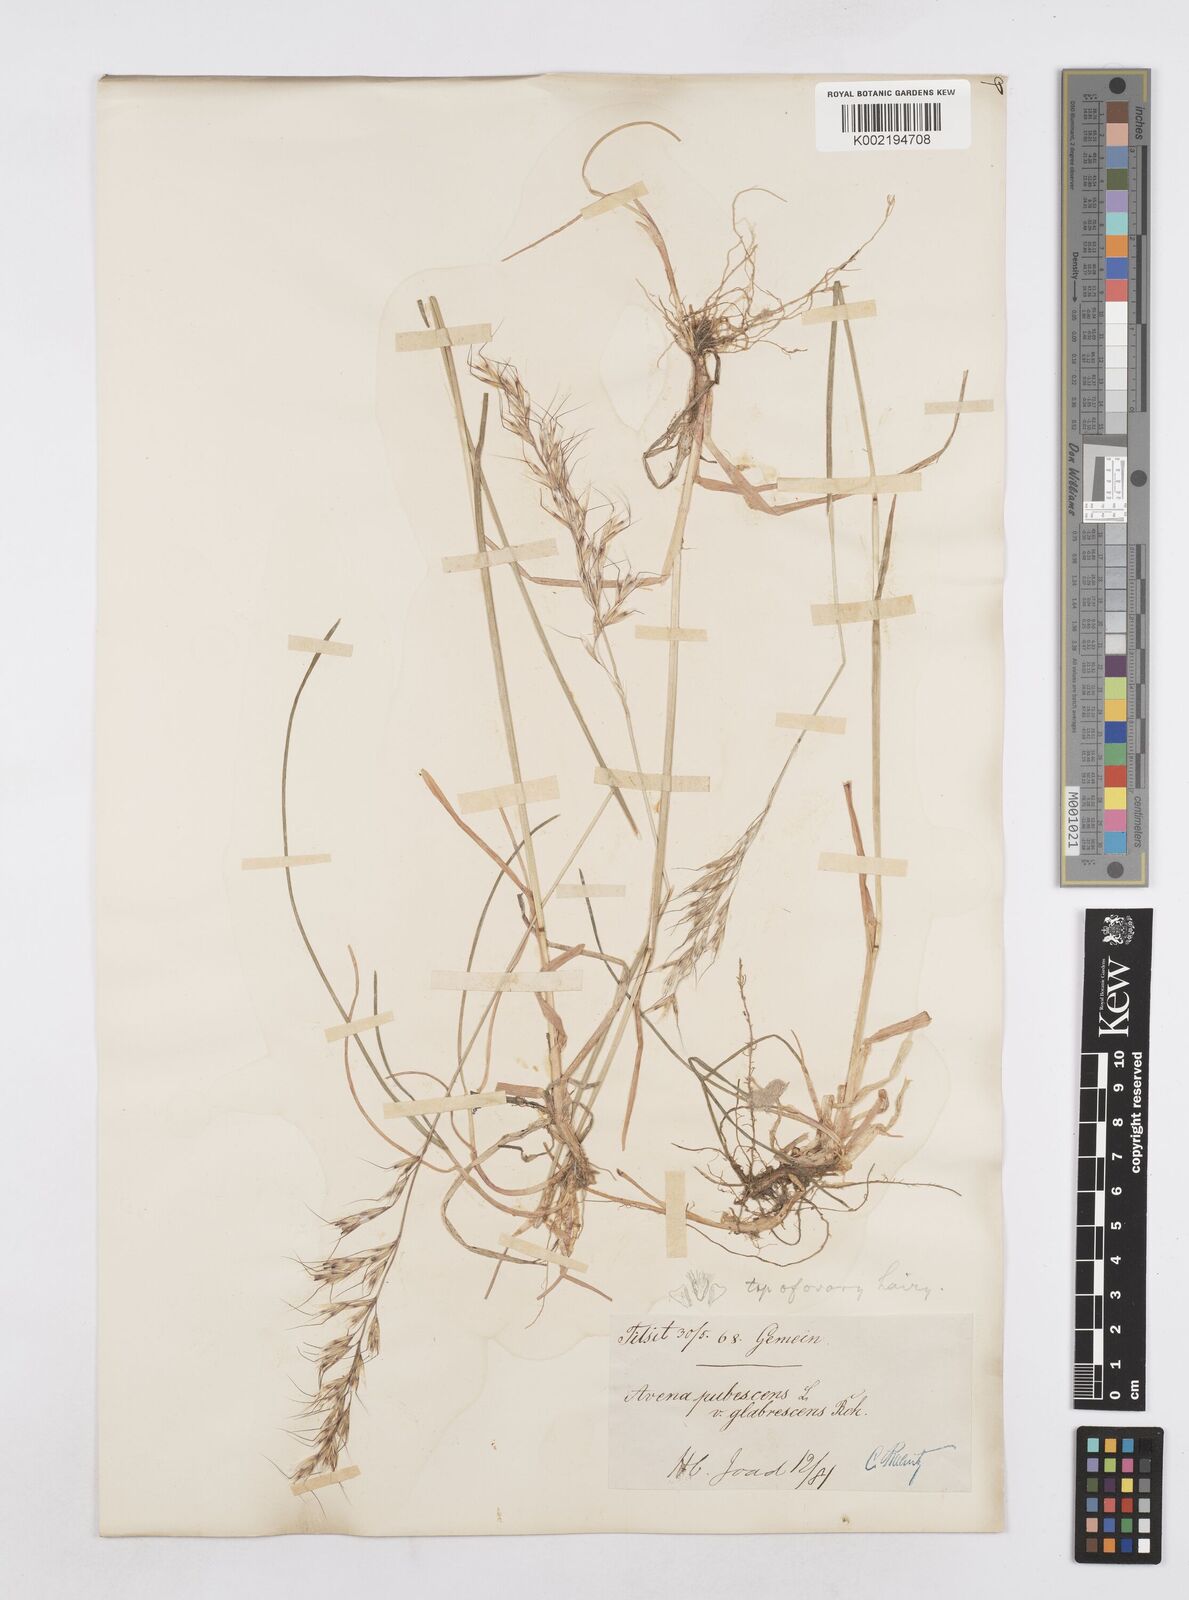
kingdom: Plantae
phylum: Tracheophyta
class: Liliopsida
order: Poales
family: Poaceae
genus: Avenula
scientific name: Avenula pubescens
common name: Downy alpine oatgrass
